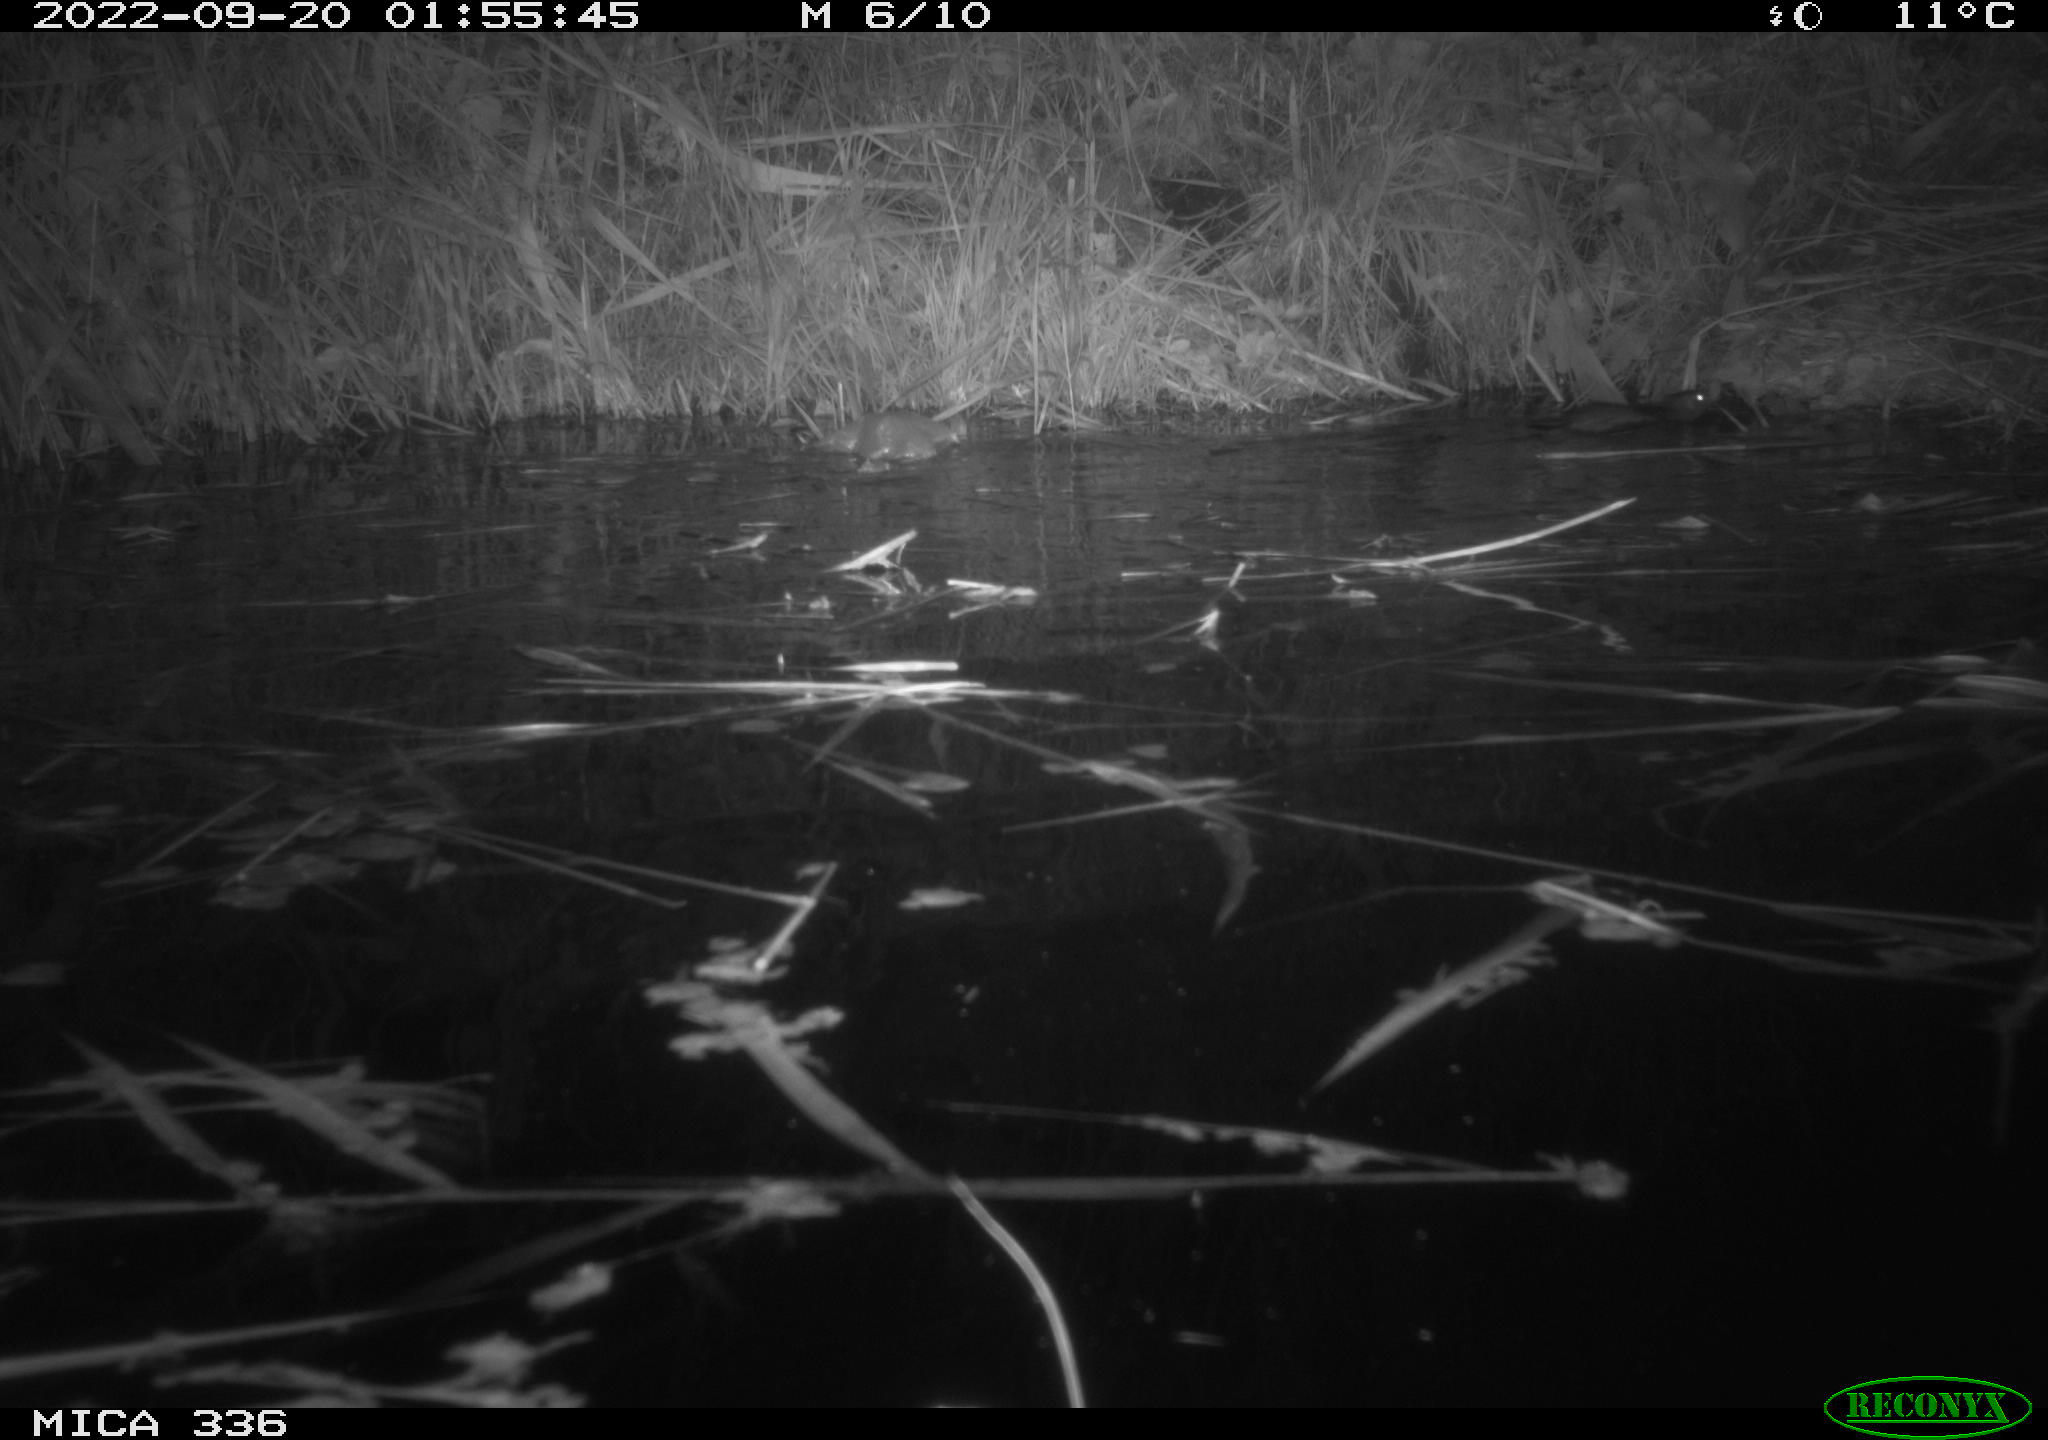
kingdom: Animalia
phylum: Chordata
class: Mammalia
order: Rodentia
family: Muridae
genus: Rattus
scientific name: Rattus norvegicus
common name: Brown rat
